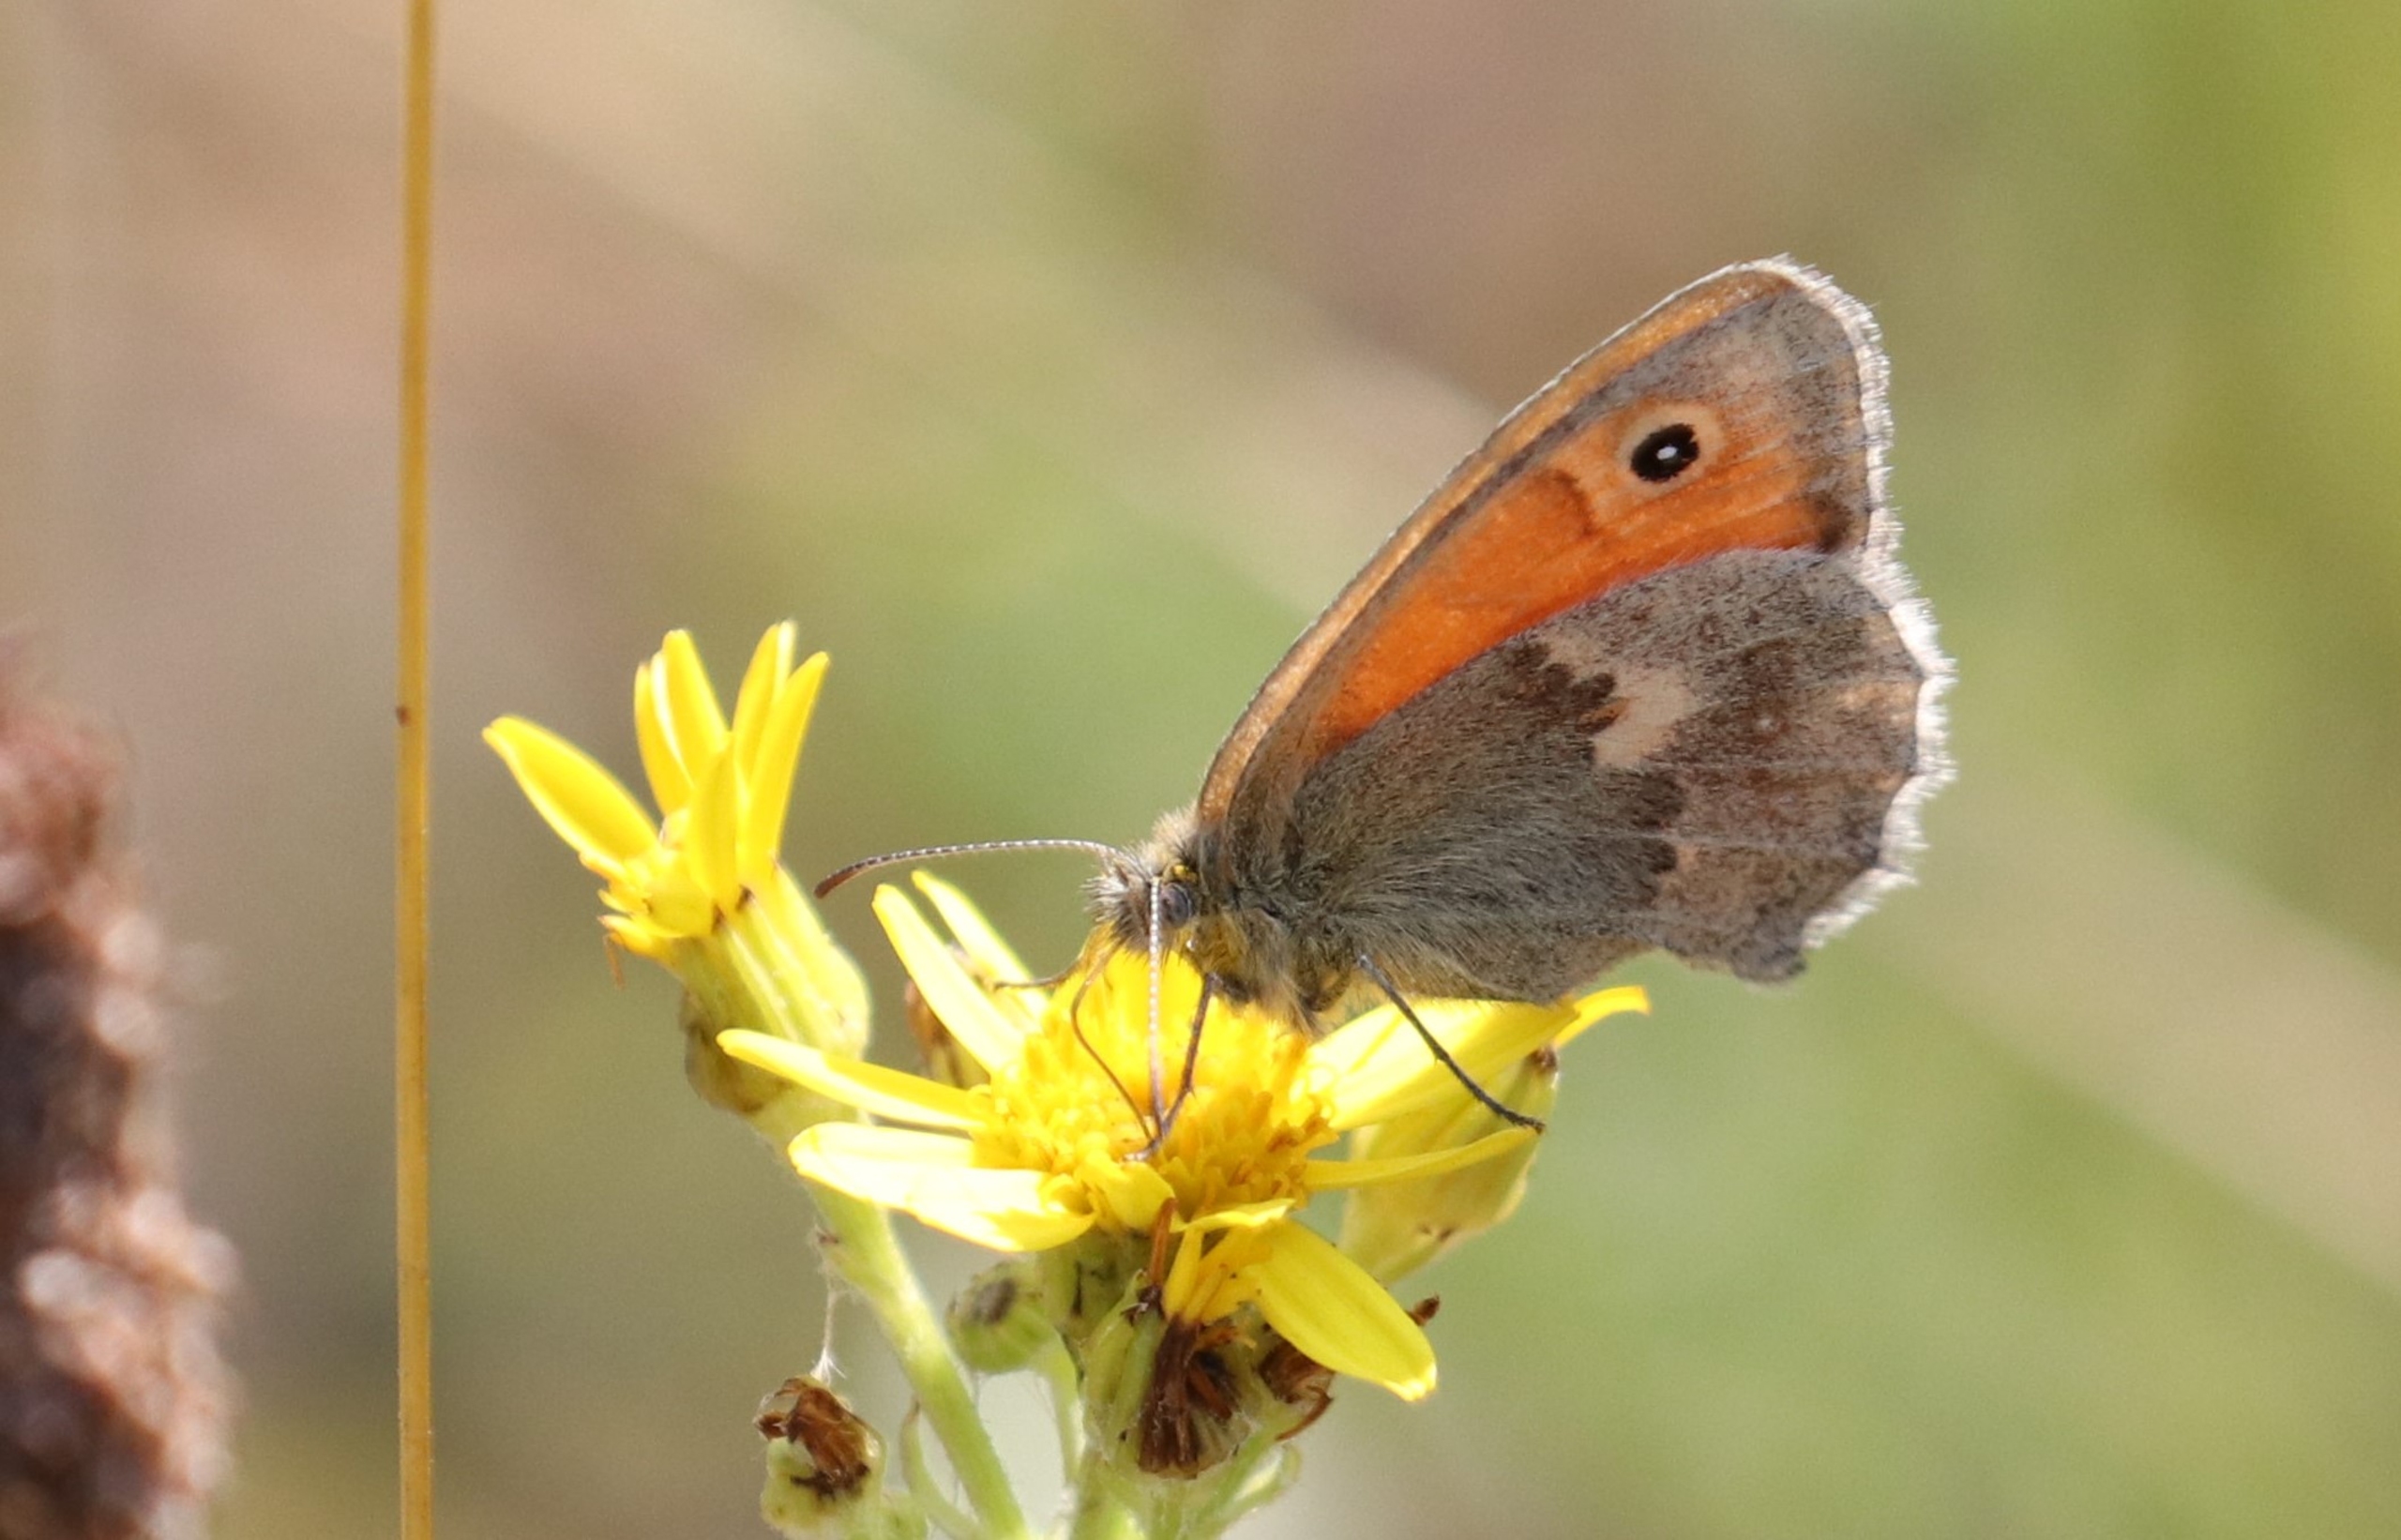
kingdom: Animalia
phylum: Arthropoda
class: Insecta
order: Lepidoptera
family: Nymphalidae
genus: Coenonympha
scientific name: Coenonympha pamphilus
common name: Okkergul randøje
